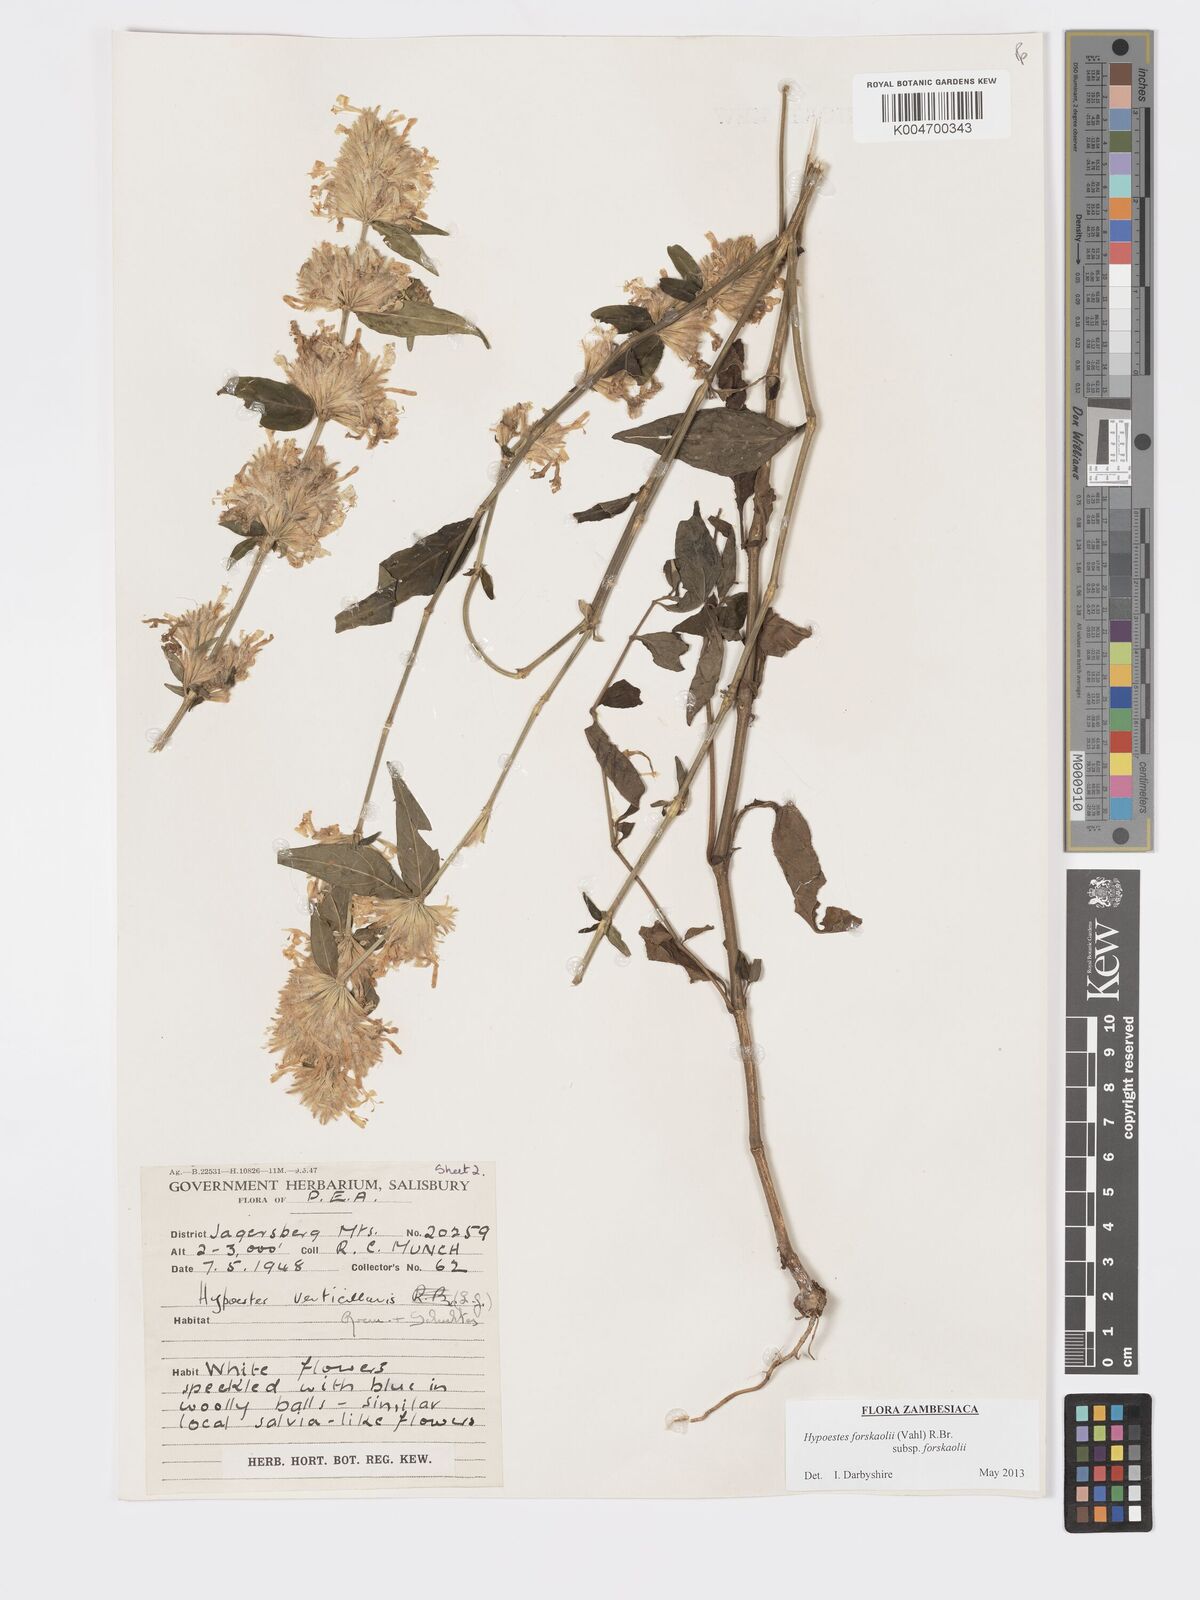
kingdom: Plantae
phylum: Tracheophyta
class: Magnoliopsida
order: Lamiales
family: Acanthaceae
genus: Hypoestes
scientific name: Hypoestes forskaolii
